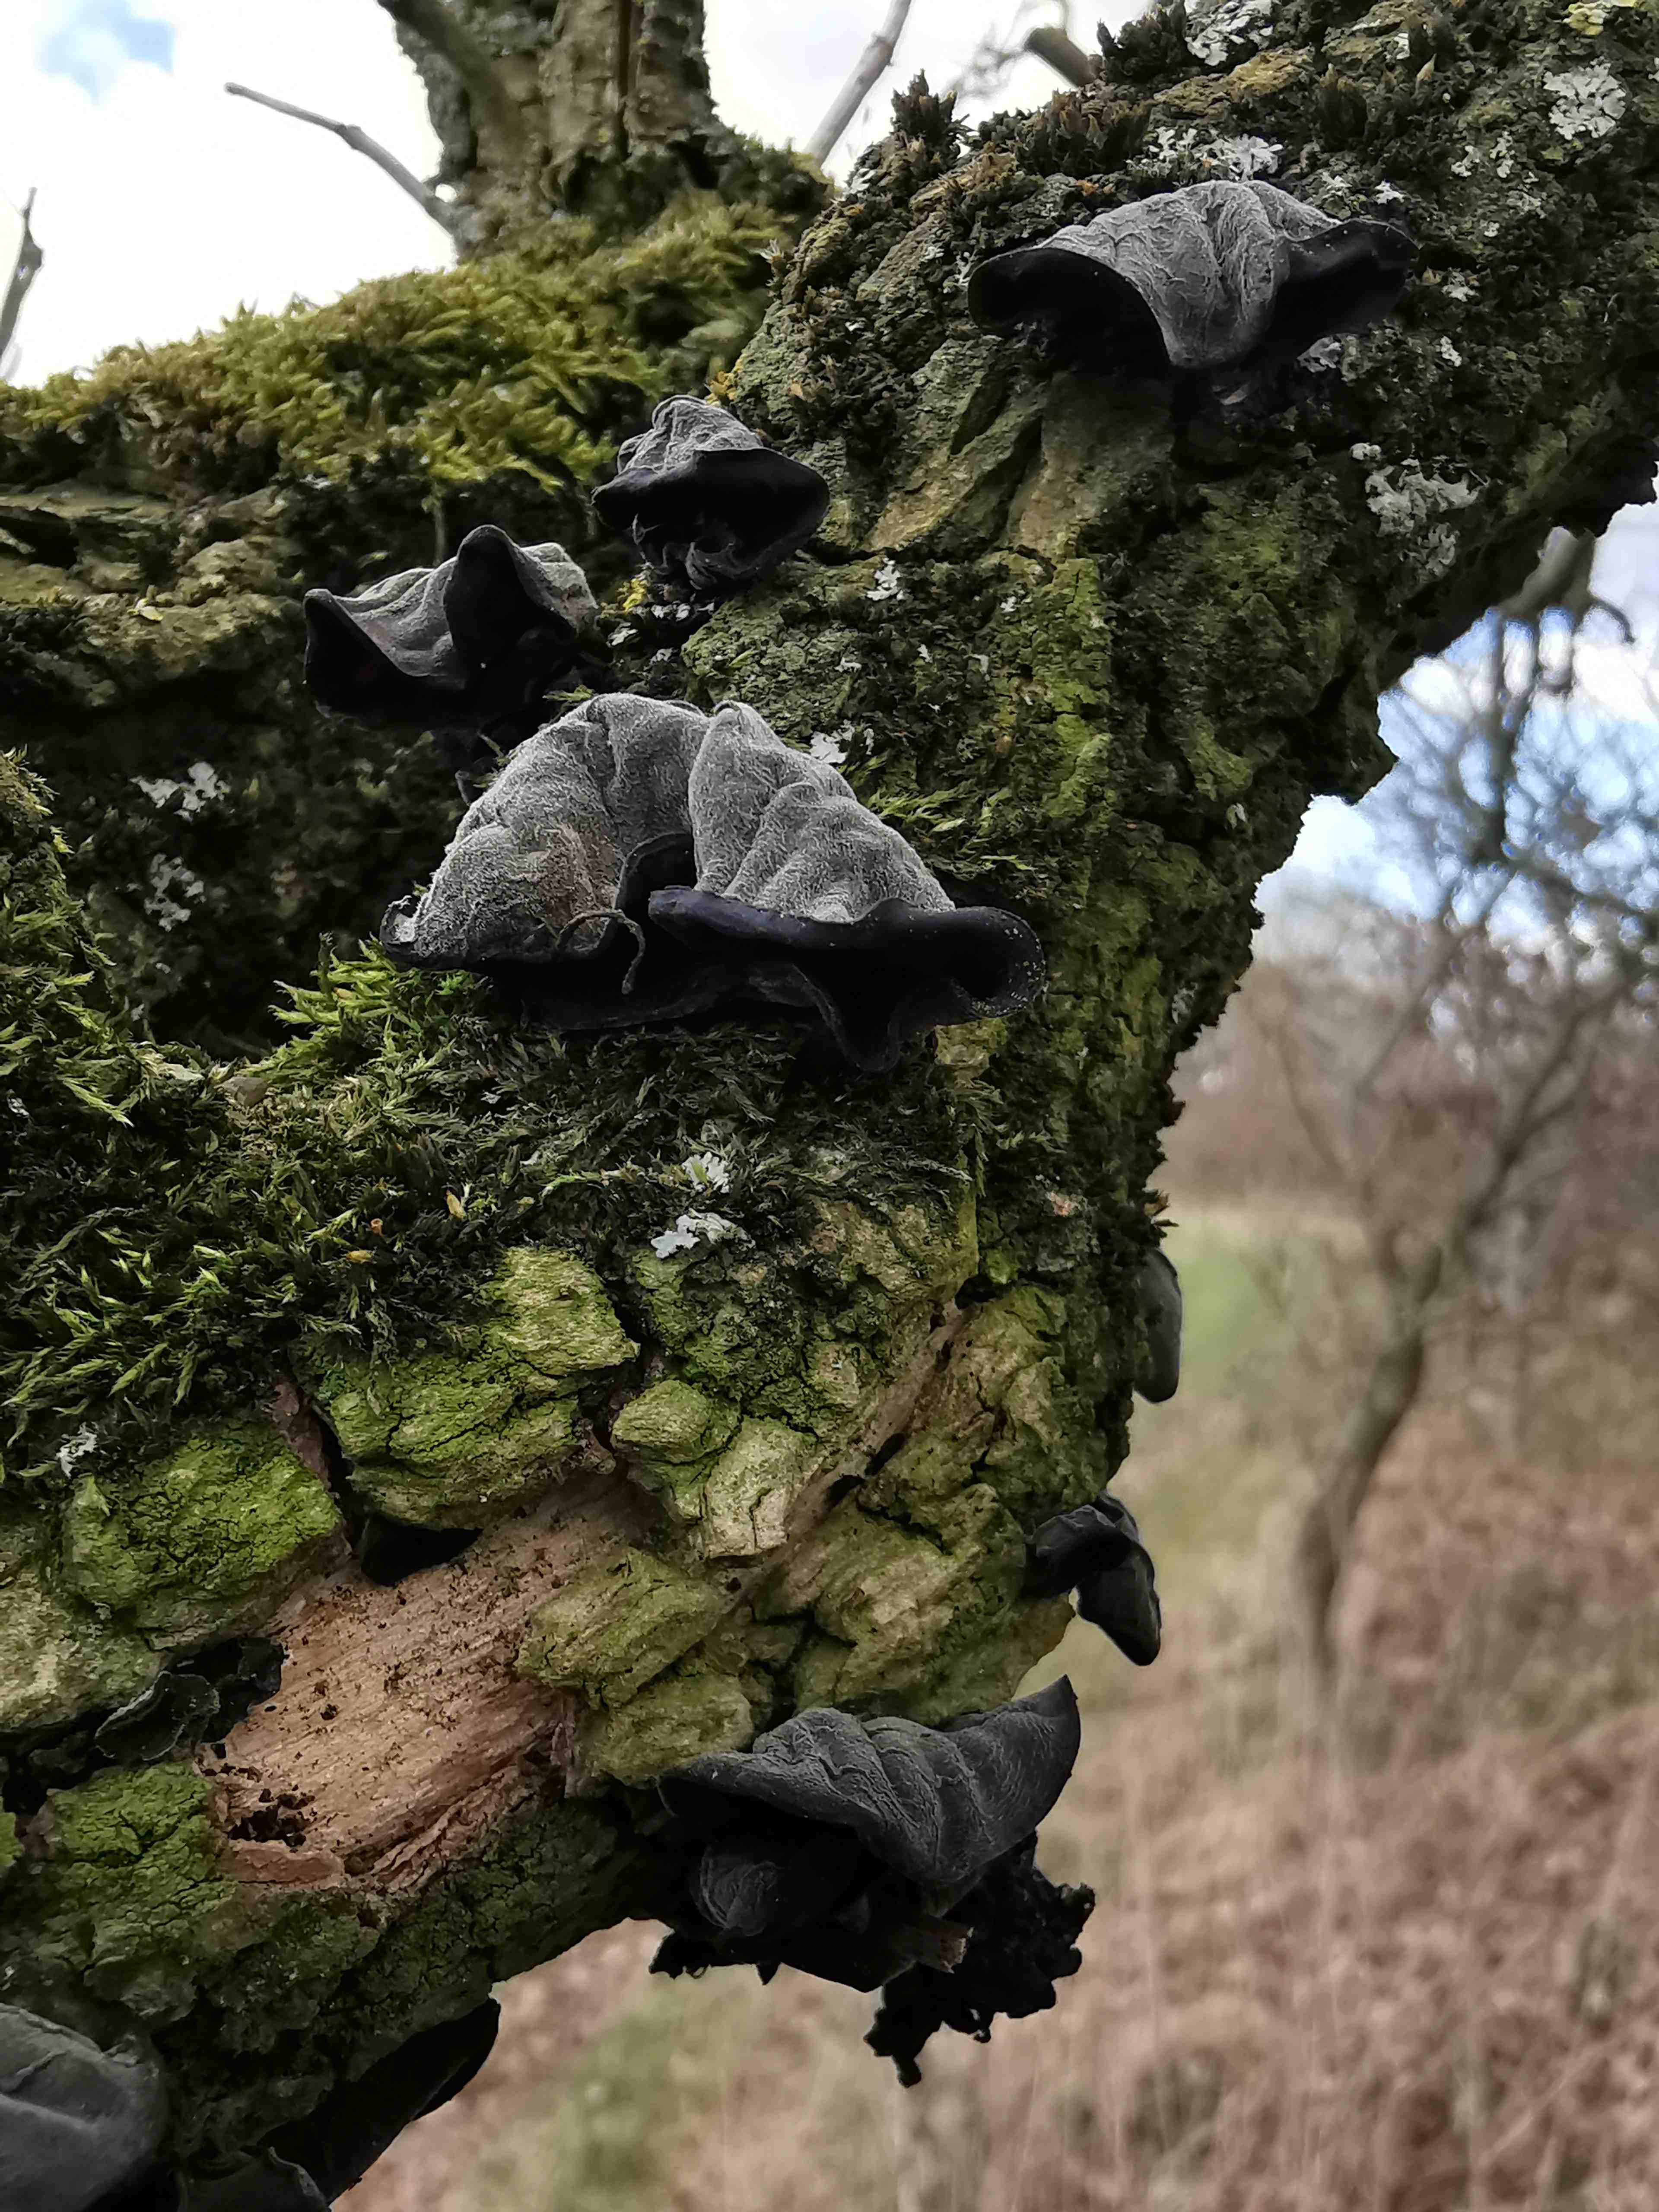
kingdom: Fungi
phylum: Basidiomycota
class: Agaricomycetes
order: Auriculariales
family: Auriculariaceae
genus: Auricularia
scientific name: Auricularia auricula-judae
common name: almindelig judasøre
